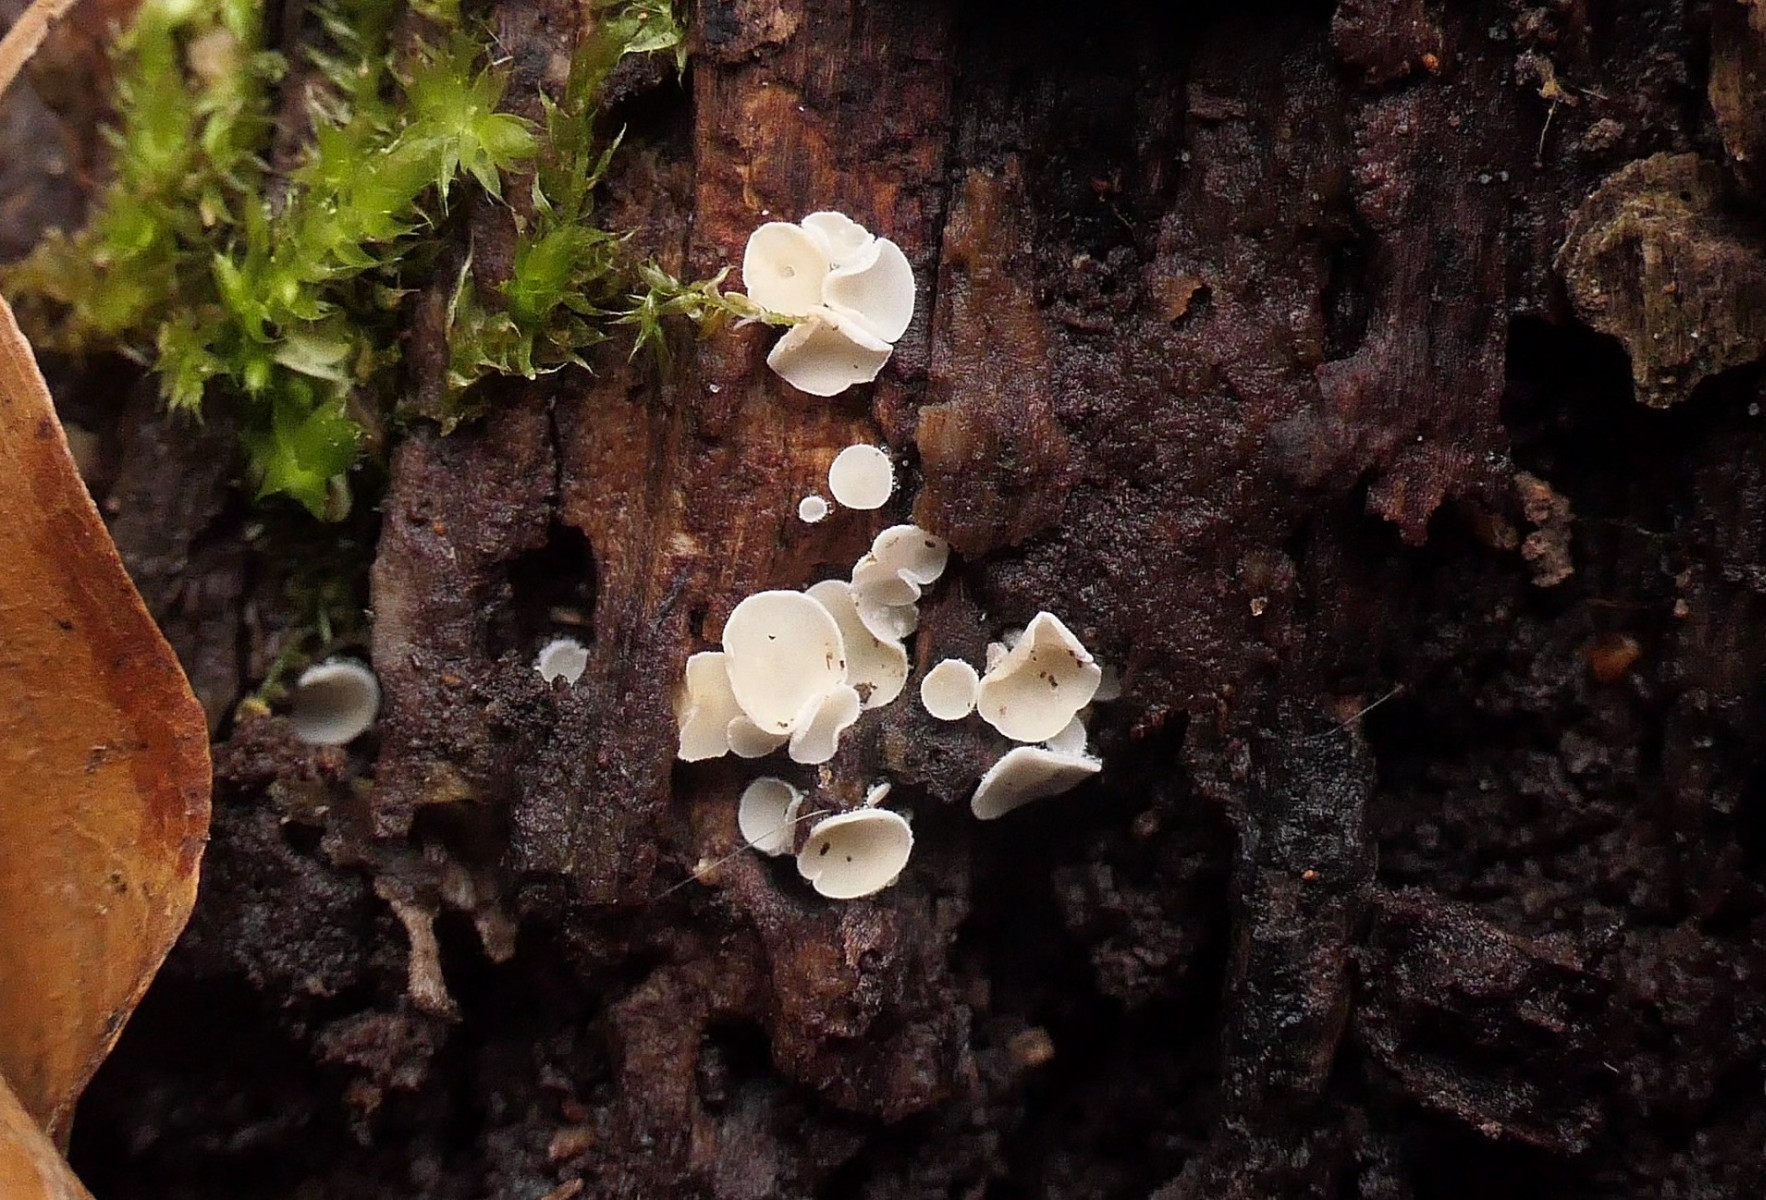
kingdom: Fungi
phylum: Ascomycota
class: Leotiomycetes
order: Helotiales
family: Lachnaceae
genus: Lachnum
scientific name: Lachnum impudicum
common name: vinter-frynseskive
